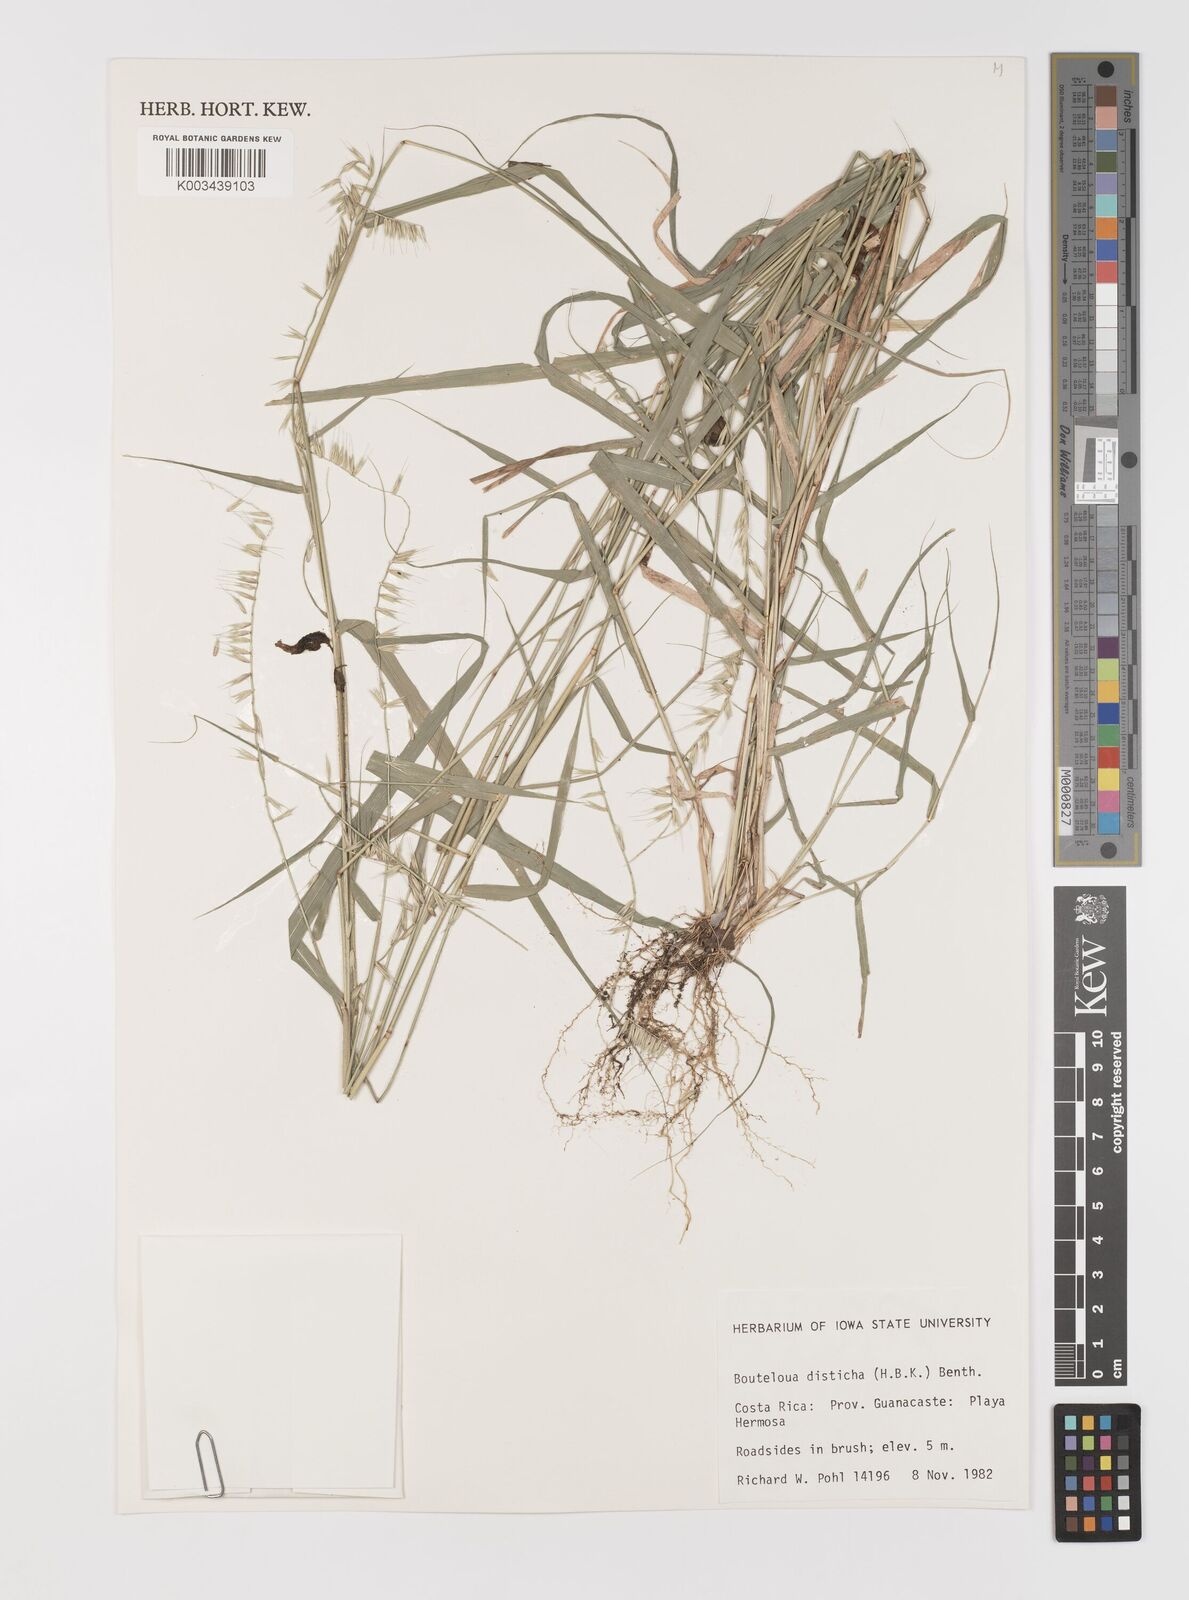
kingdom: Plantae
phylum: Tracheophyta
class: Liliopsida
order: Poales
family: Poaceae
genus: Bouteloua
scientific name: Bouteloua disticha
